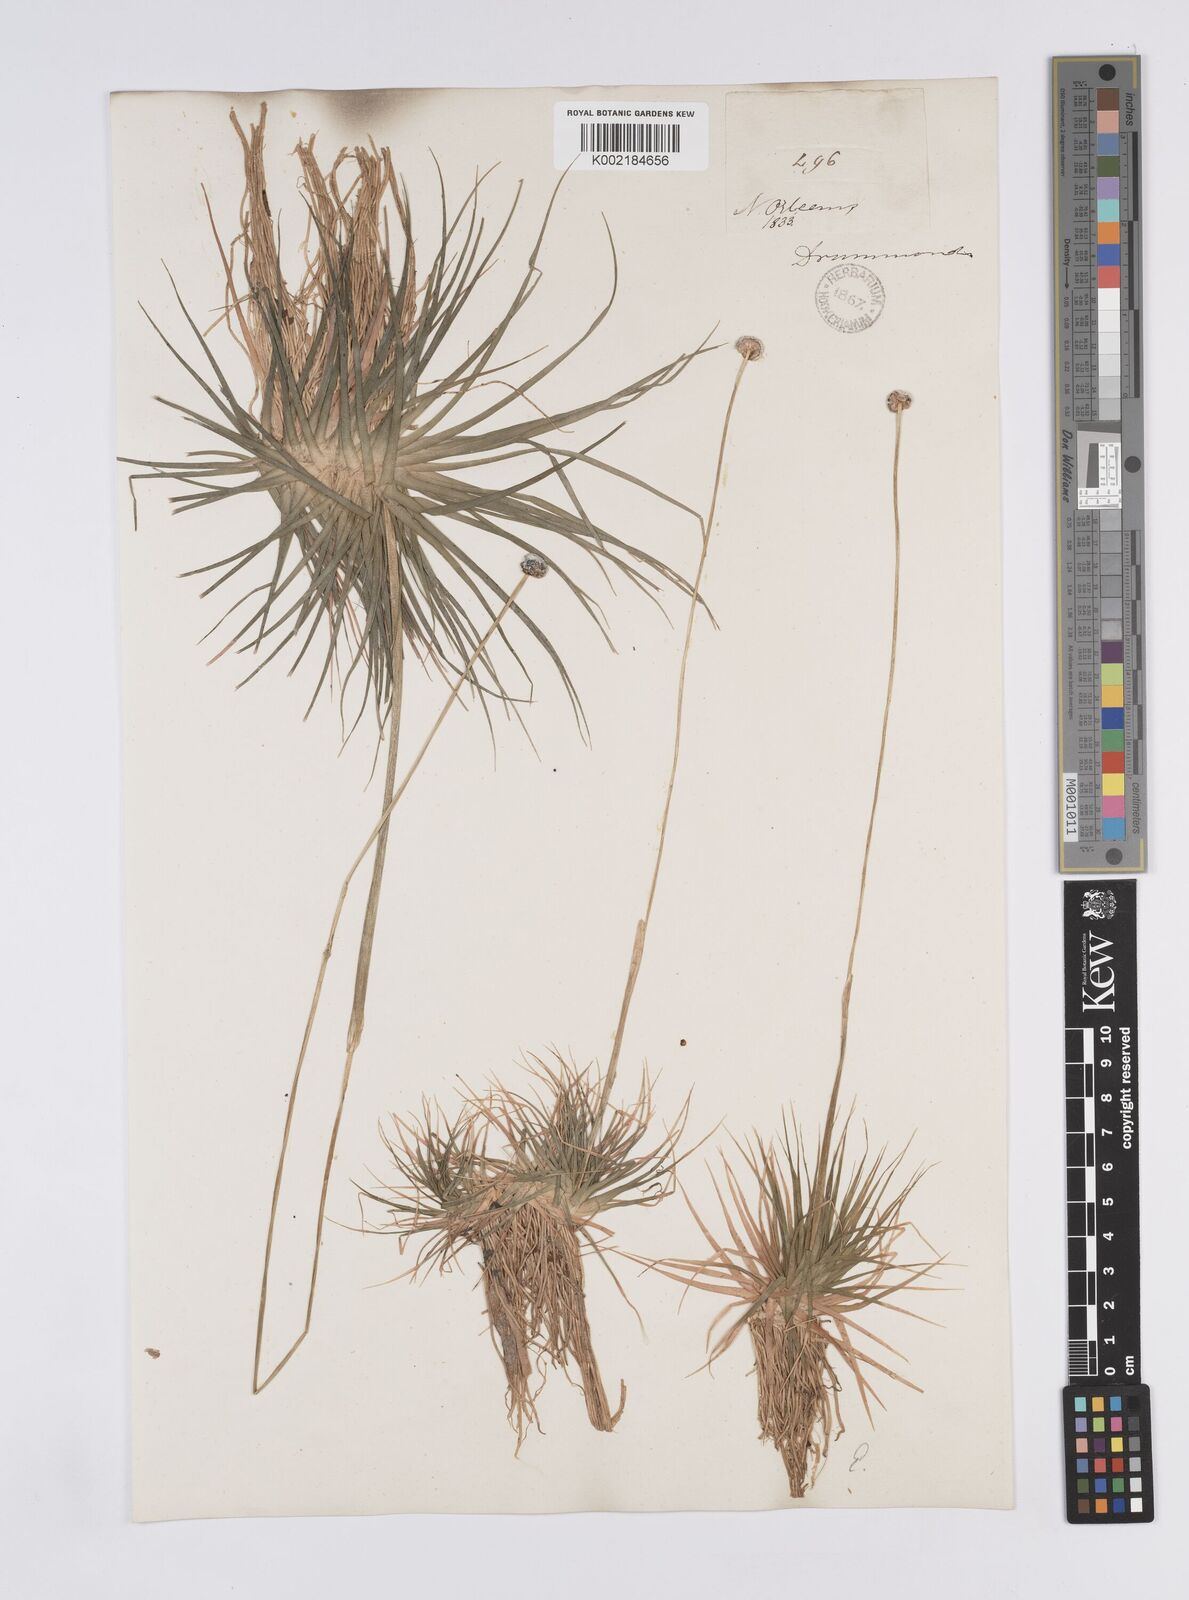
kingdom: Plantae
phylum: Tracheophyta
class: Liliopsida
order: Poales
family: Eriocaulaceae
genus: Eriocaulon
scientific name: Eriocaulon compressum
